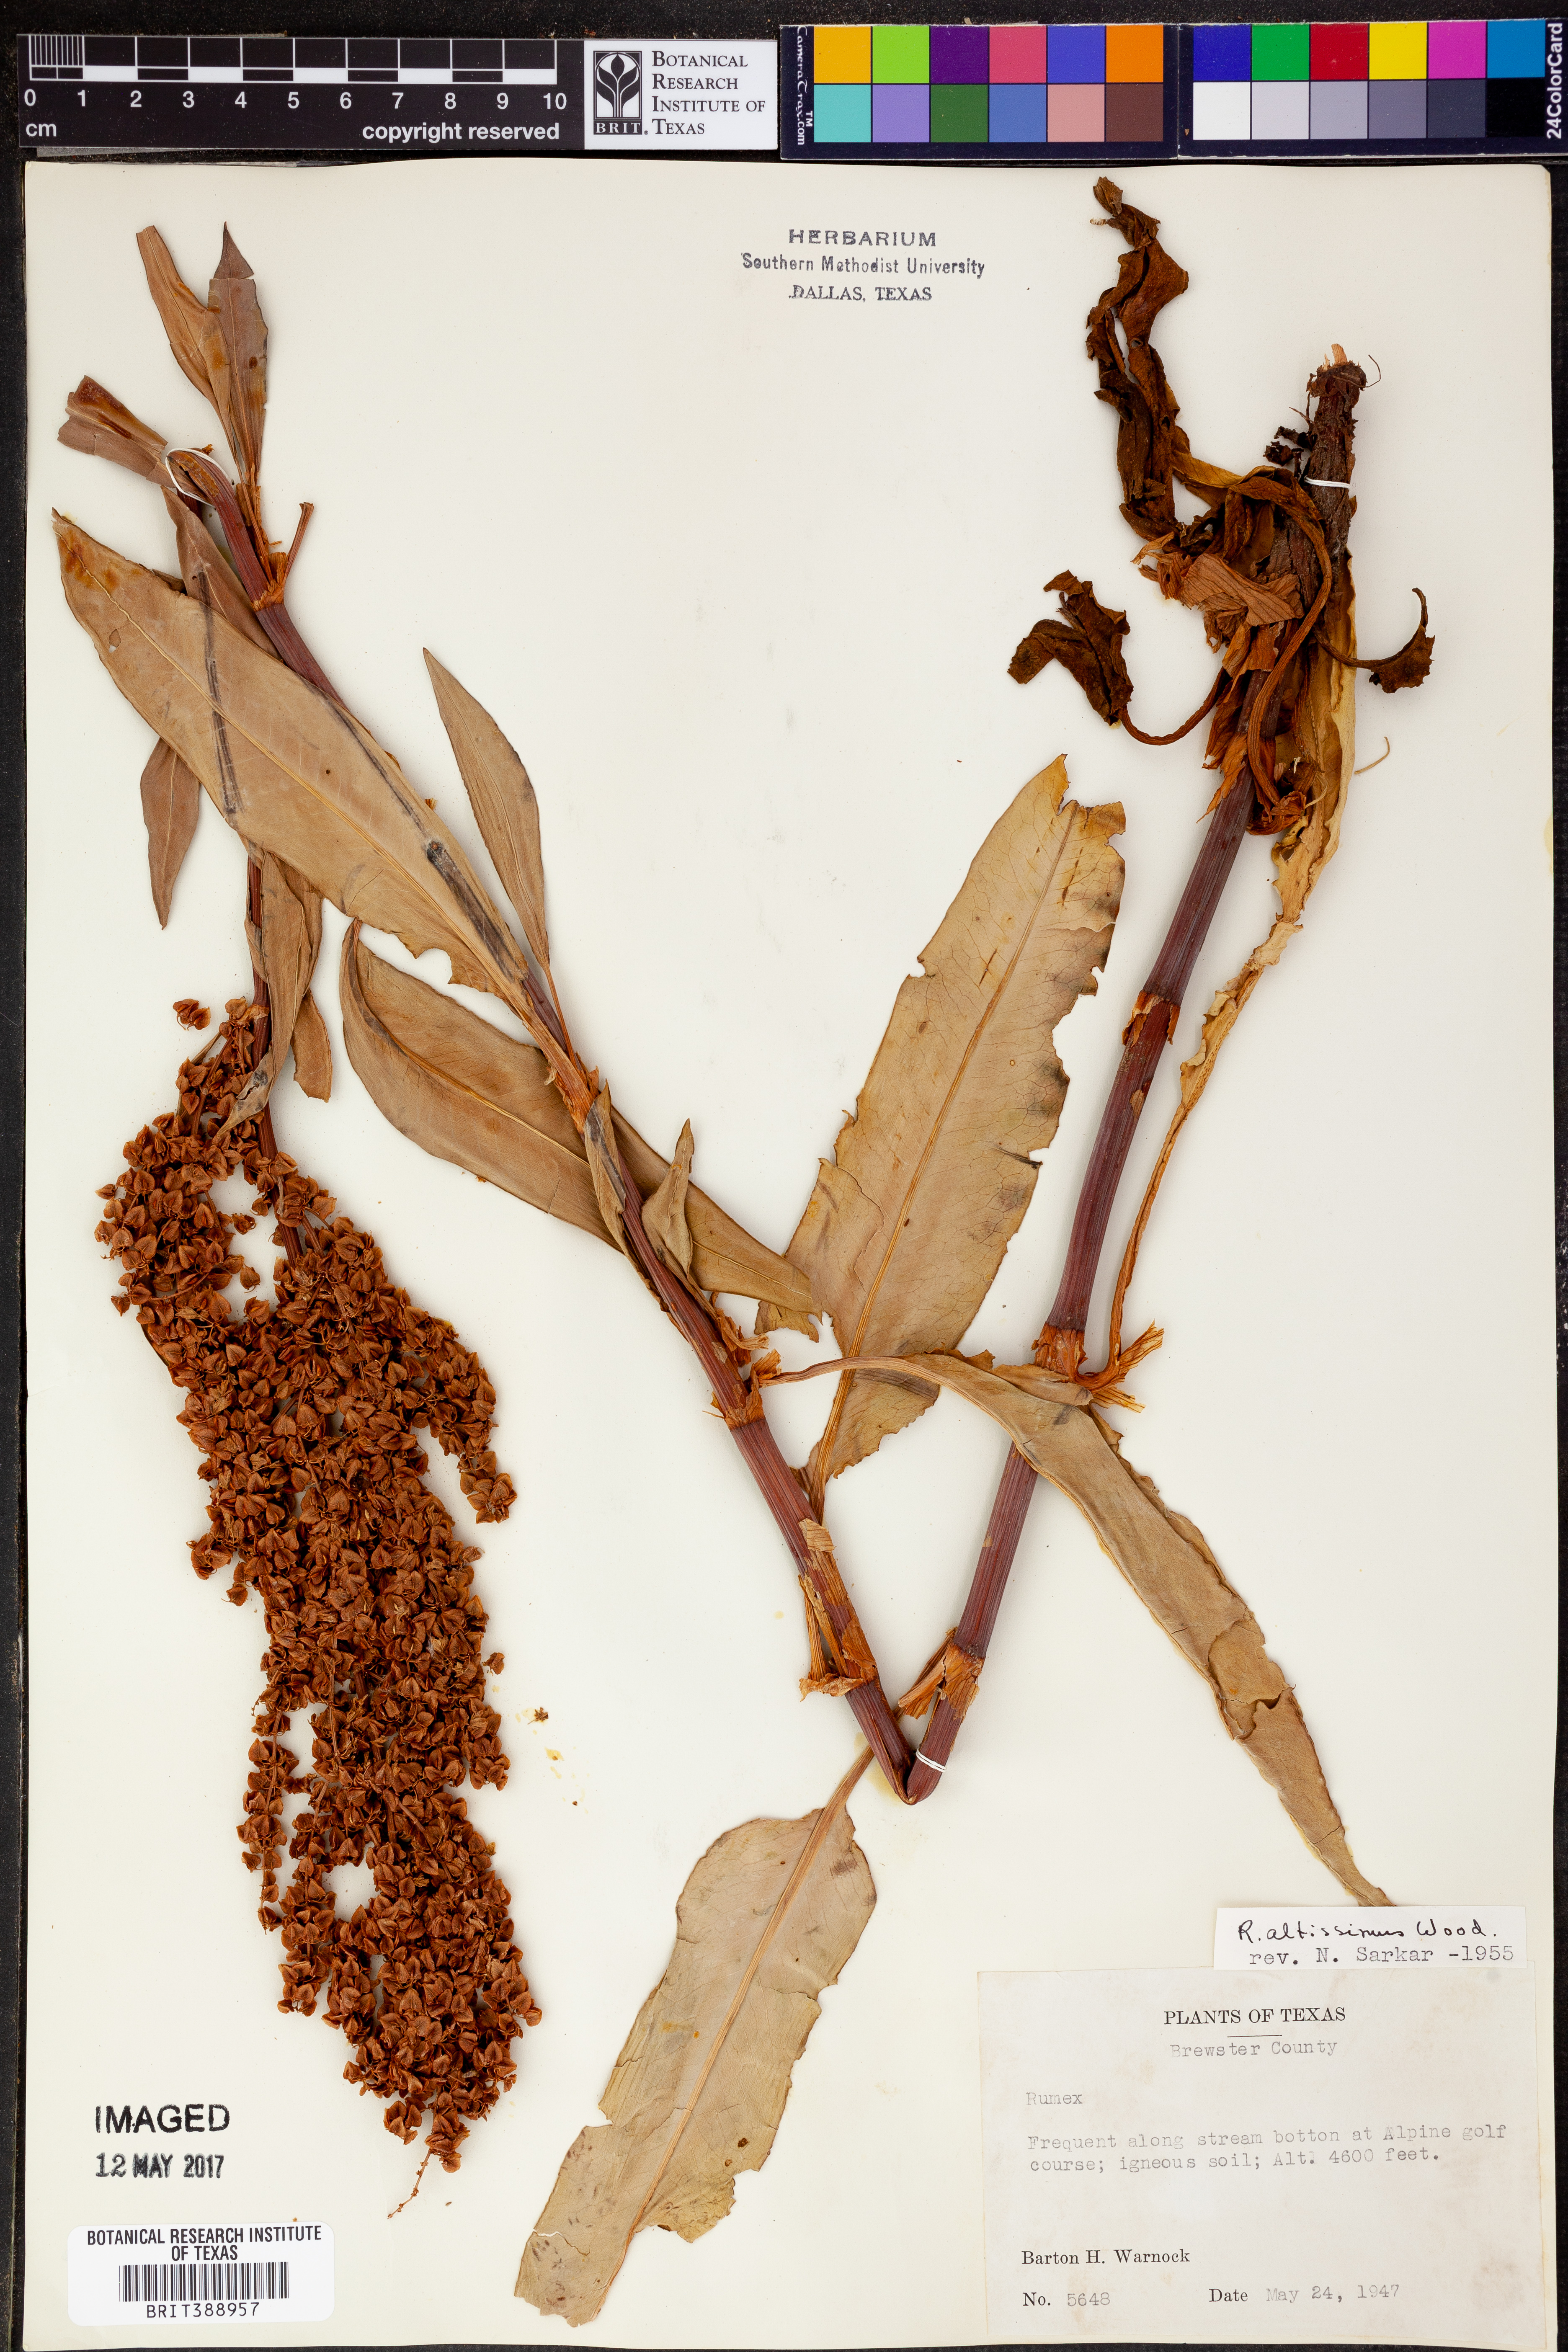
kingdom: Plantae
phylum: Tracheophyta
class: Magnoliopsida
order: Caryophyllales
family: Polygonaceae
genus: Rumex
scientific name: Rumex altissimus
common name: Smooth dock
